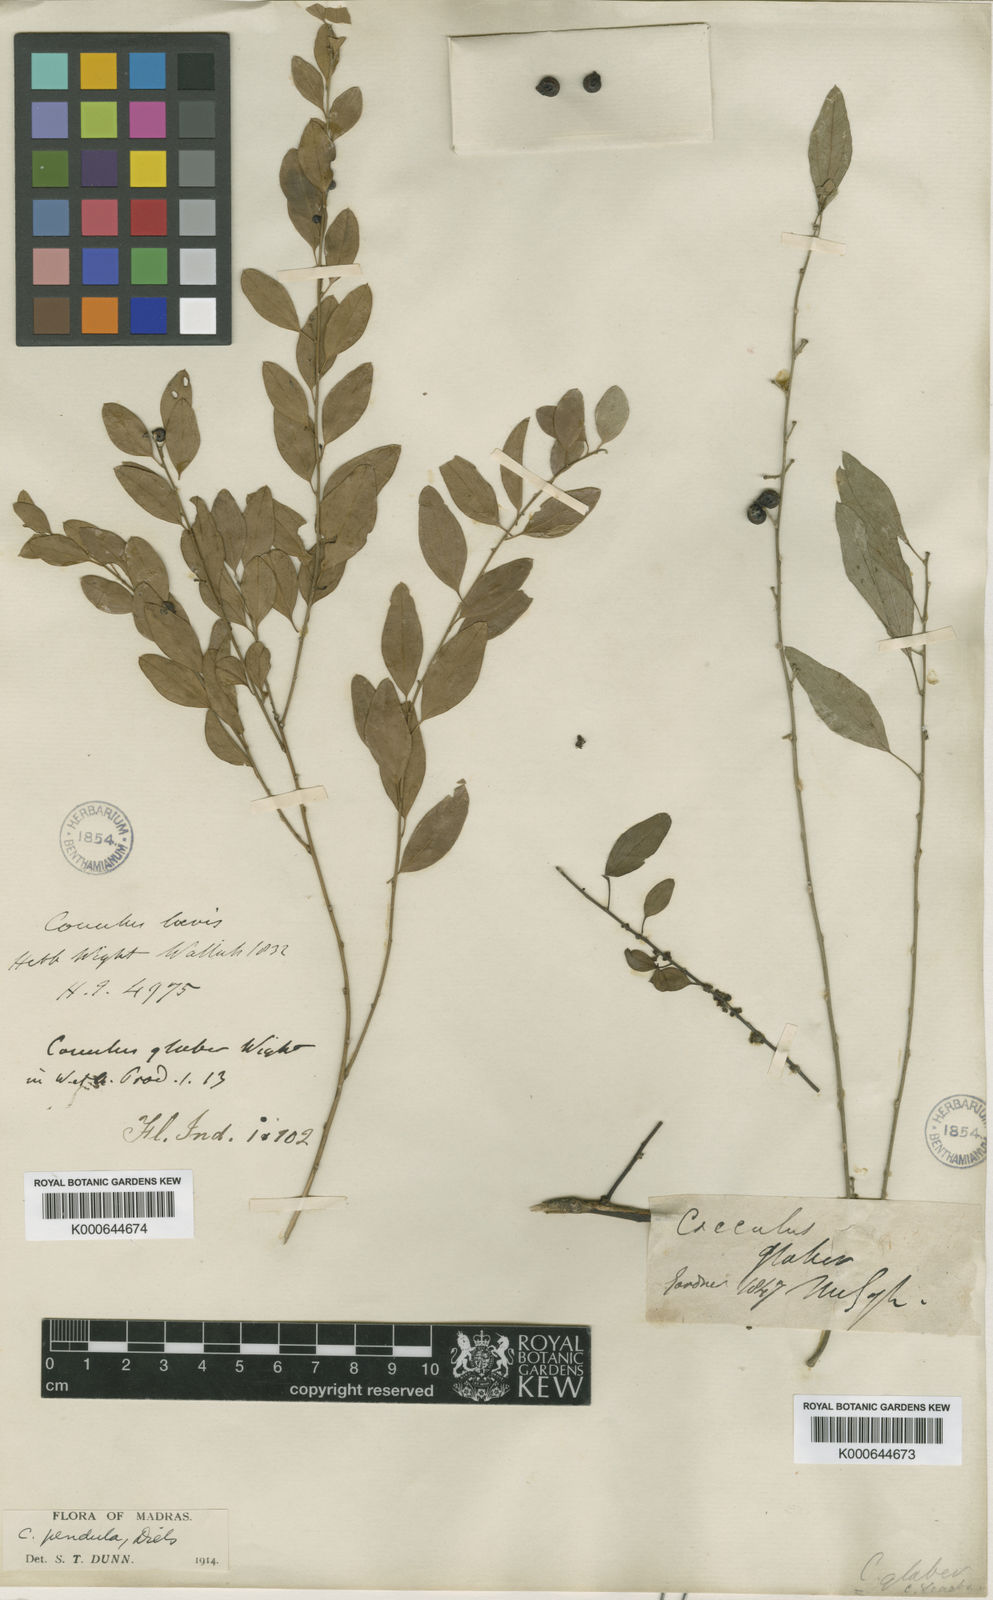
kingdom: Plantae
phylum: Tracheophyta
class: Magnoliopsida
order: Ranunculales
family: Menispermaceae
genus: Cocculus
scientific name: Cocculus
